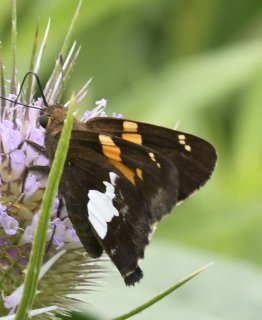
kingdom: Animalia
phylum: Arthropoda
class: Insecta
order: Lepidoptera
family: Hesperiidae
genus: Epargyreus
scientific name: Epargyreus clarus
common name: Silver-spotted Skipper
